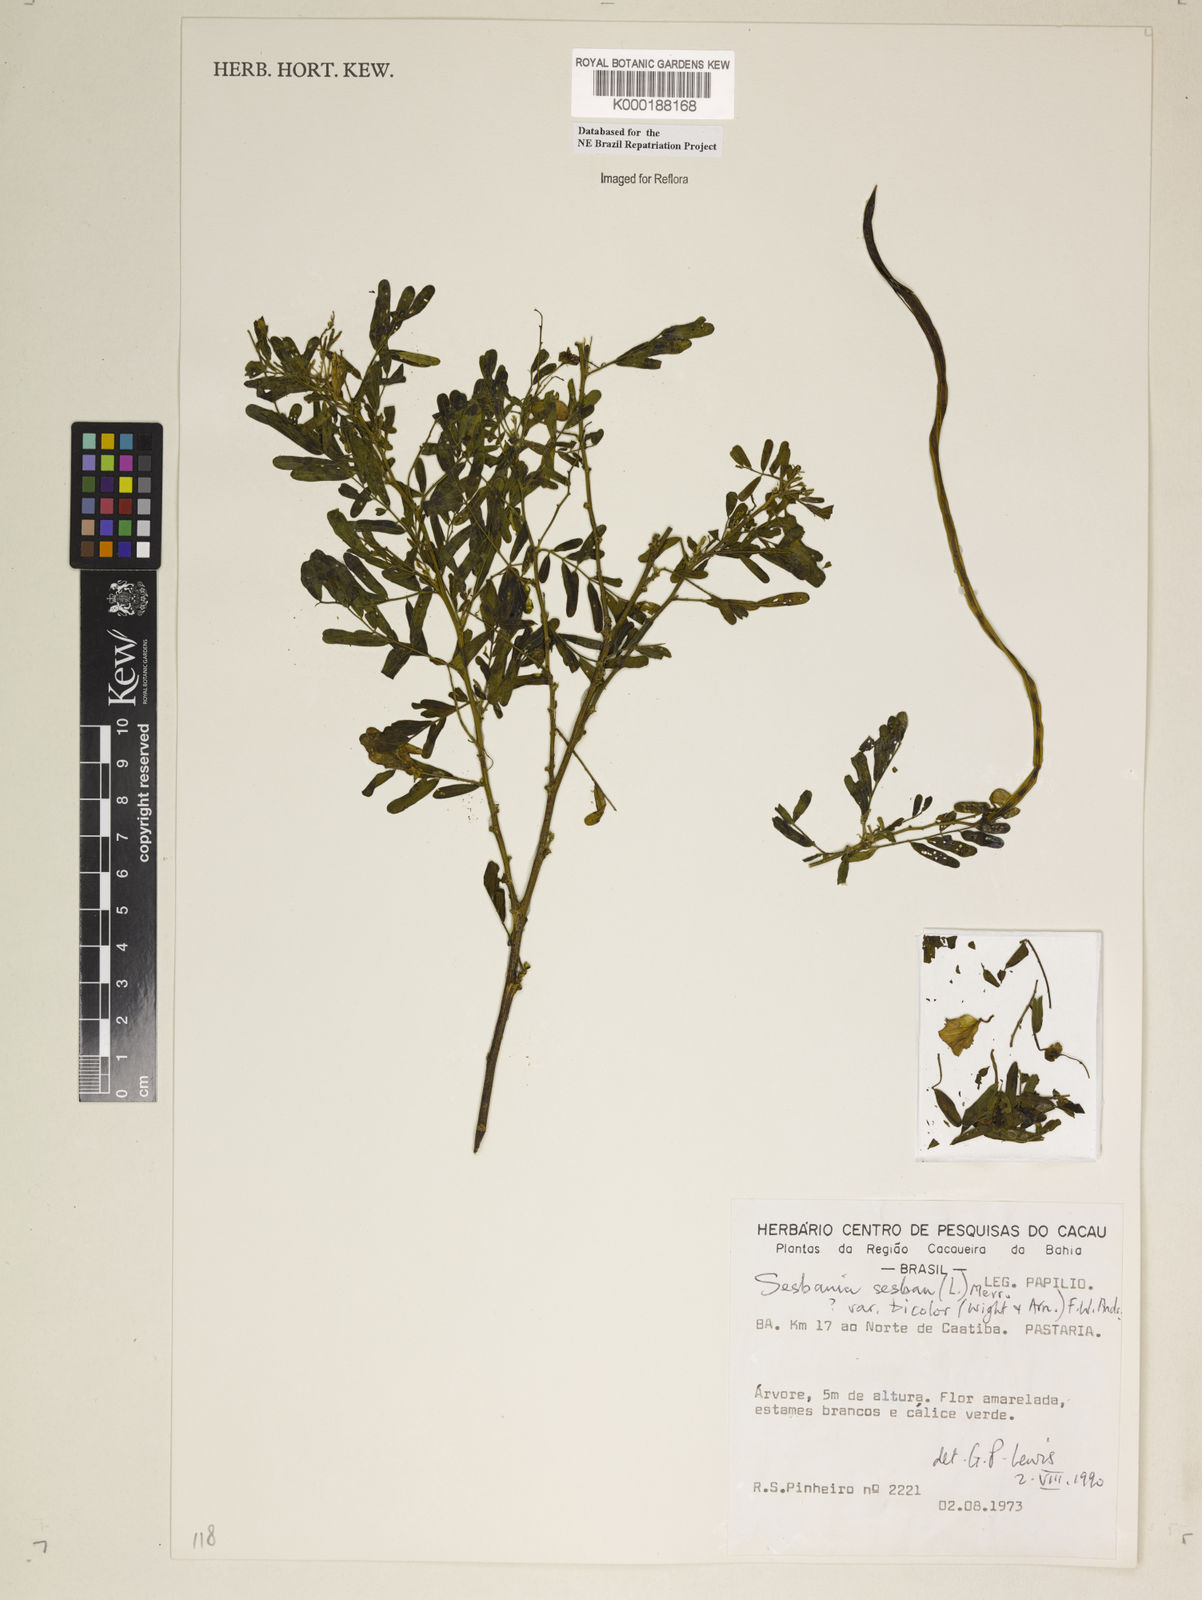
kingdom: Plantae
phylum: Tracheophyta
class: Magnoliopsida
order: Fabales
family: Fabaceae
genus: Sesbania
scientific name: Sesbania sesban
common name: Egyptian sesban
